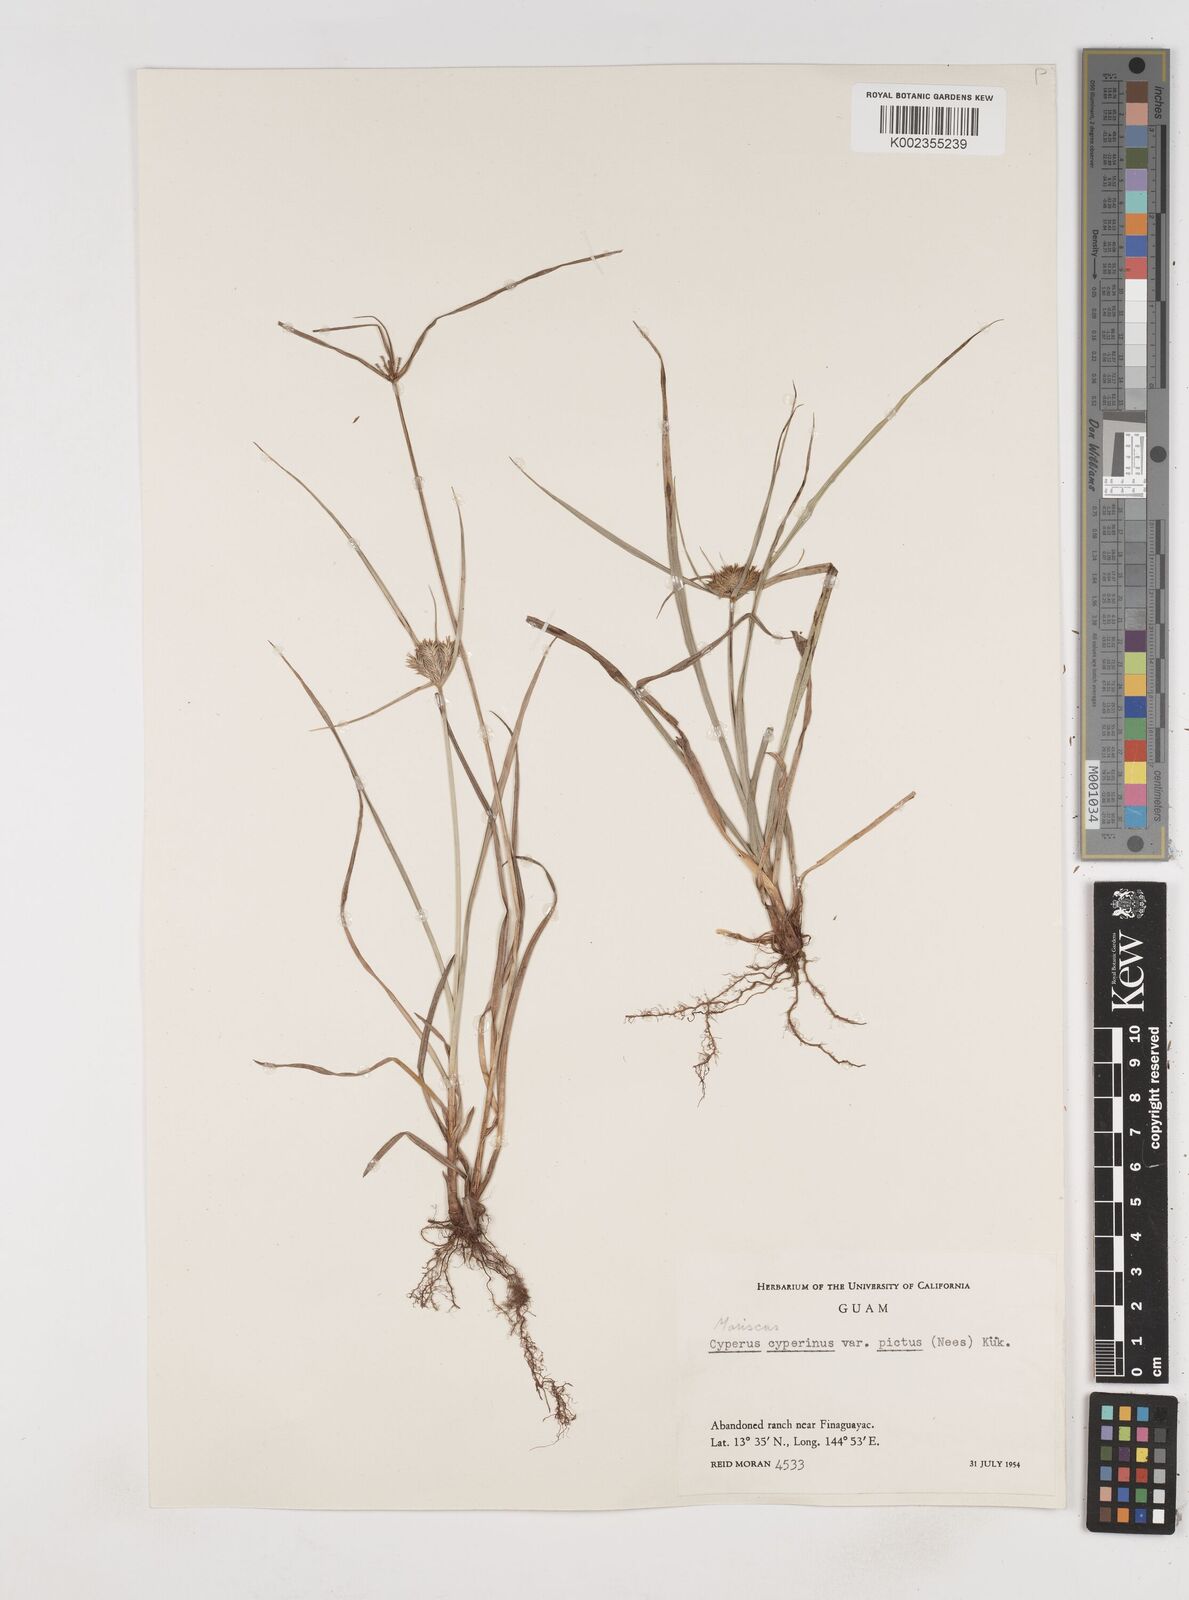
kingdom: Plantae
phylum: Tracheophyta
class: Liliopsida
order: Poales
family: Cyperaceae
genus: Cyperus
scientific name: Cyperus cyperinus
